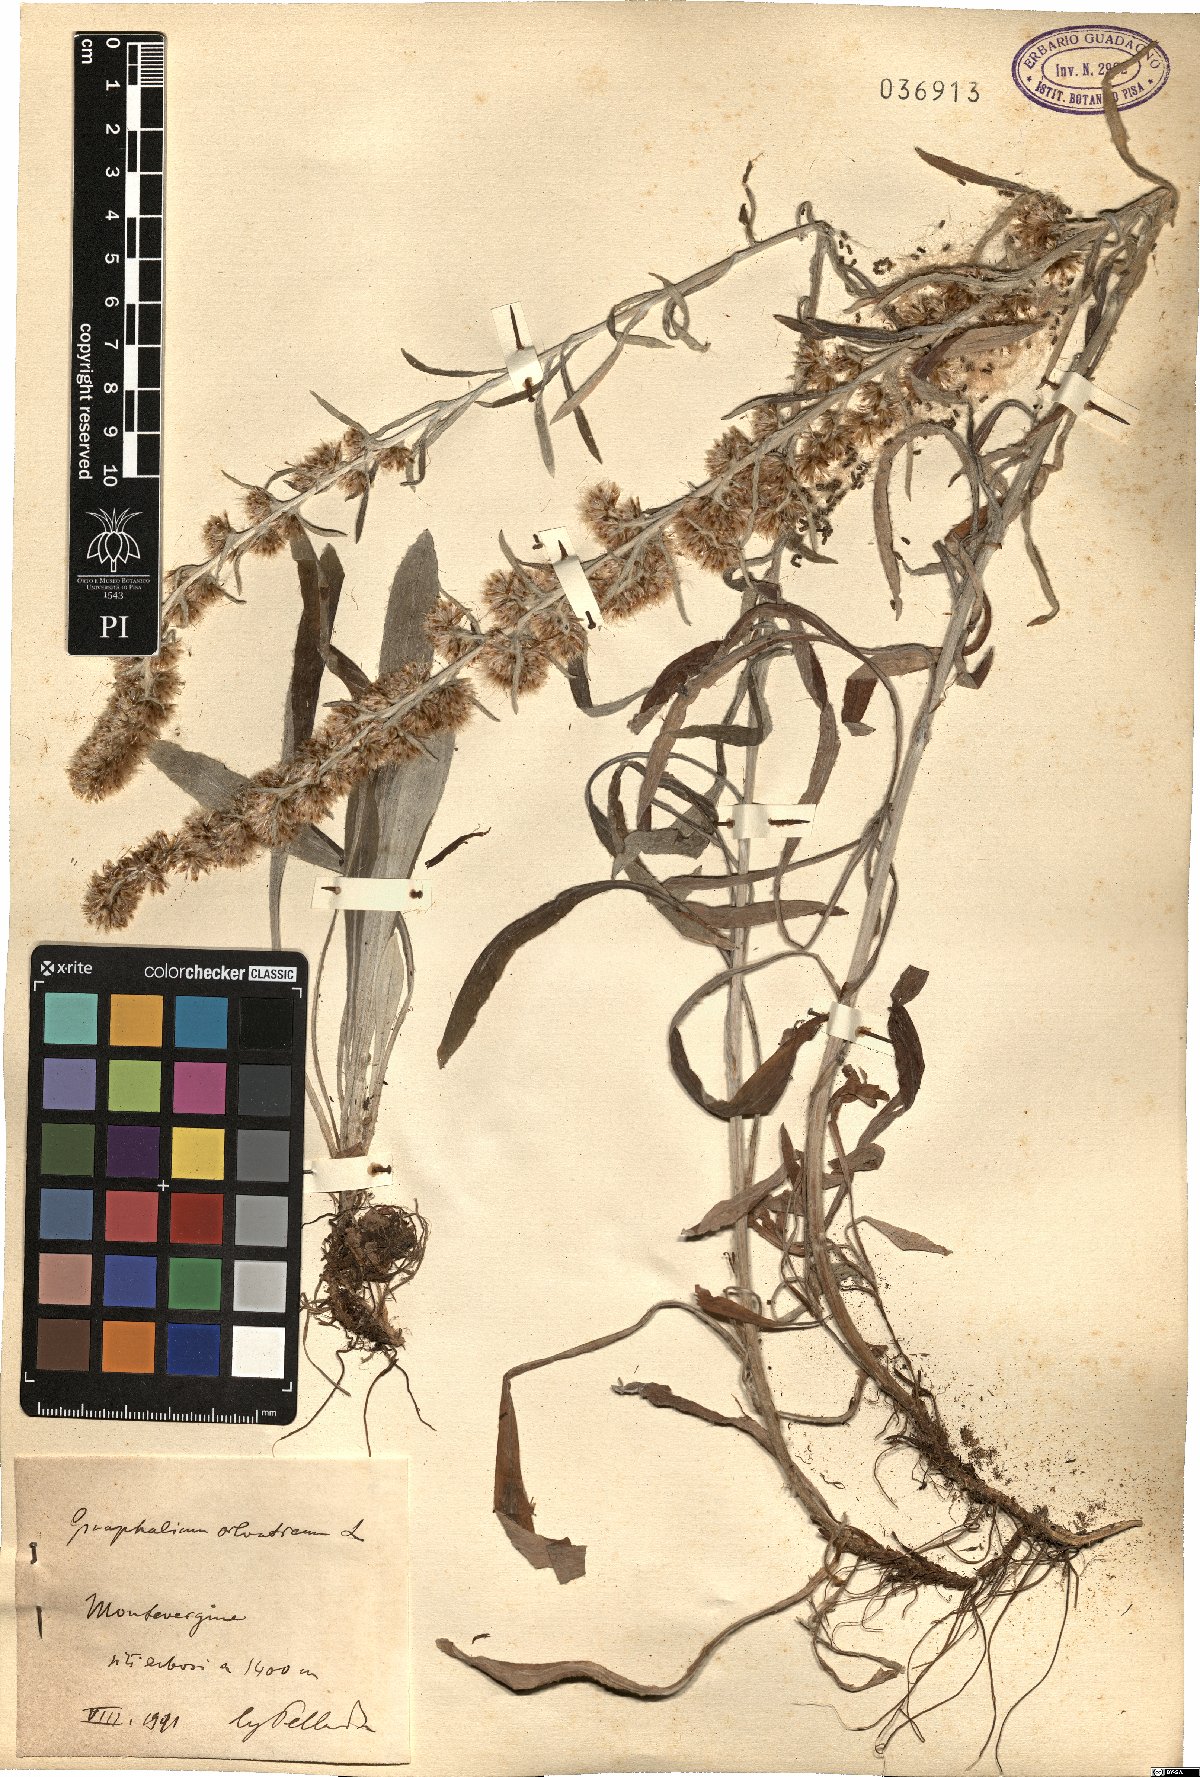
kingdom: Plantae
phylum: Tracheophyta
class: Magnoliopsida
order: Asterales
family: Asteraceae
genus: Omalotheca
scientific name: Omalotheca sylvatica
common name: Heath cudweed
